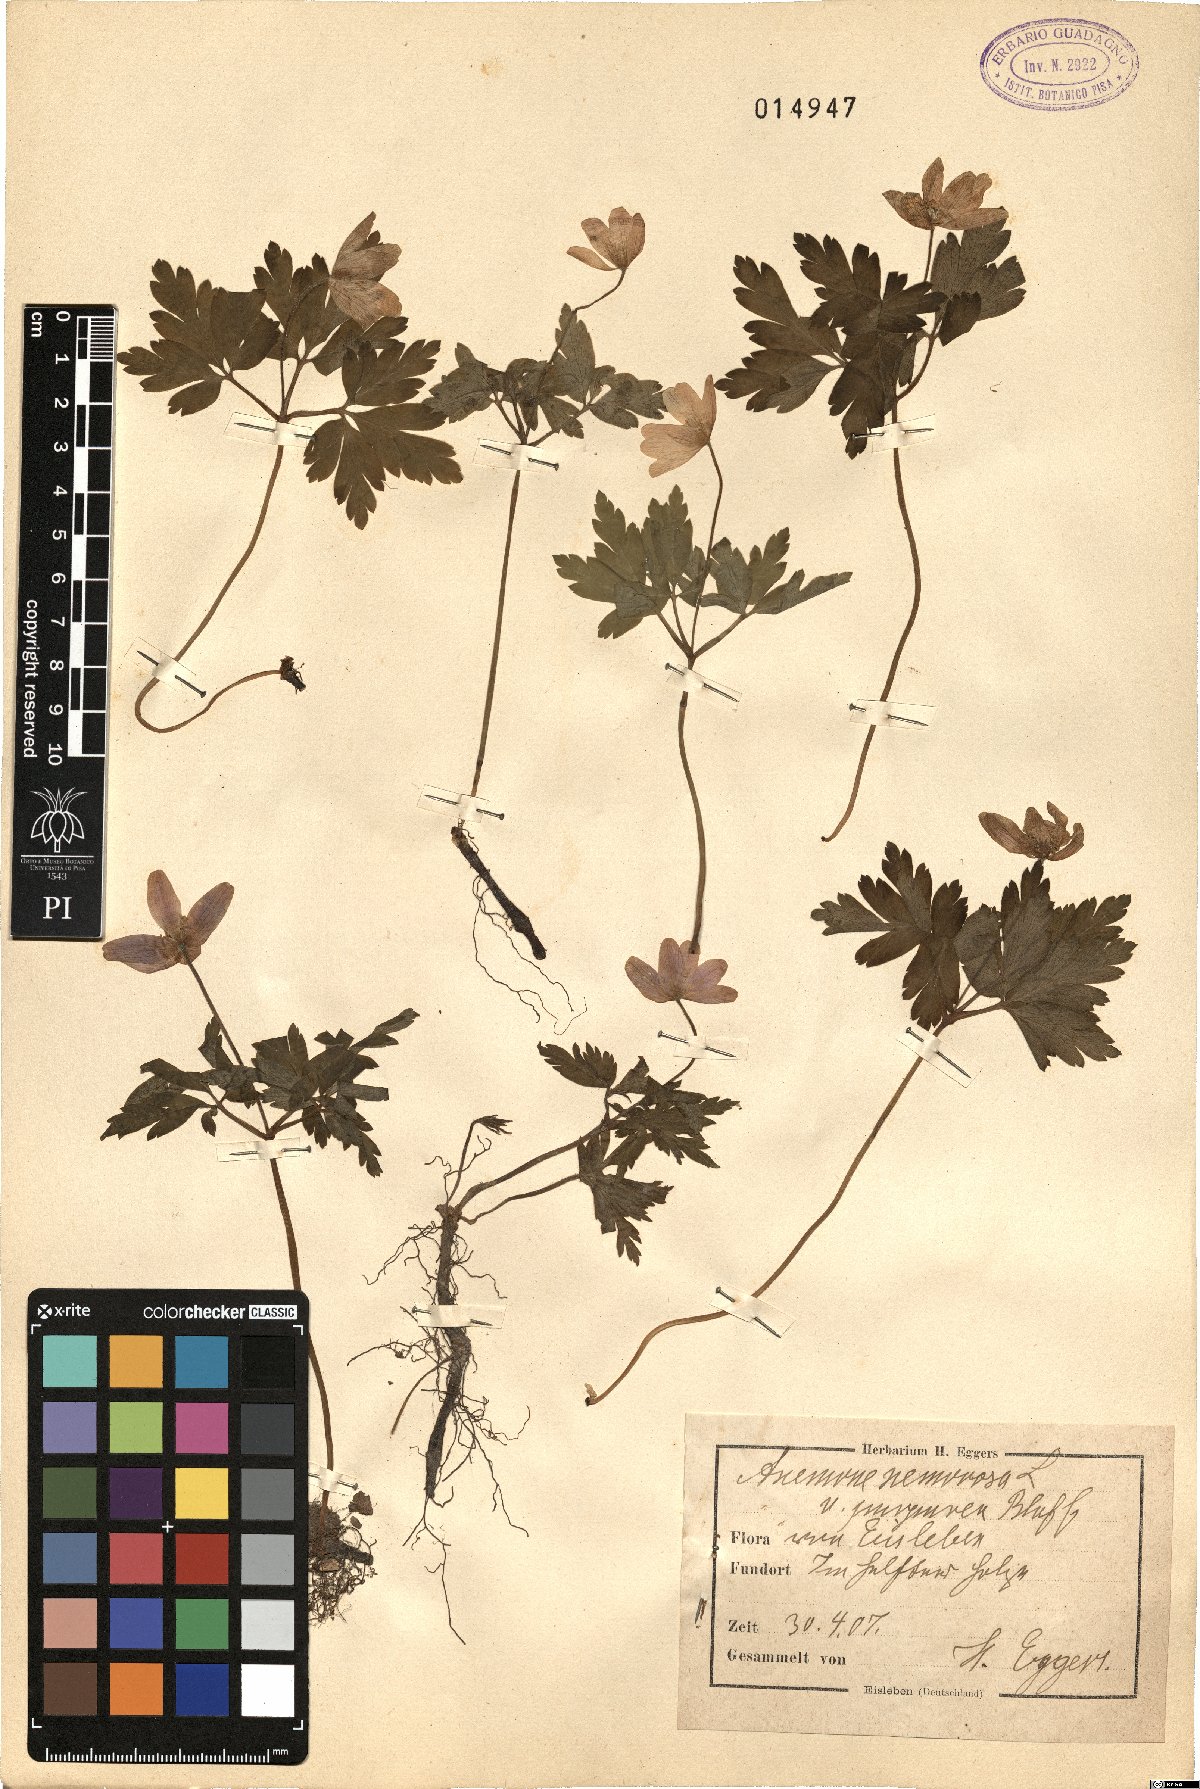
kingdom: Plantae
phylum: Tracheophyta
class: Magnoliopsida
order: Ranunculales
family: Ranunculaceae
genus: Anemone
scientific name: Anemone nemorosa
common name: Wood anemone
